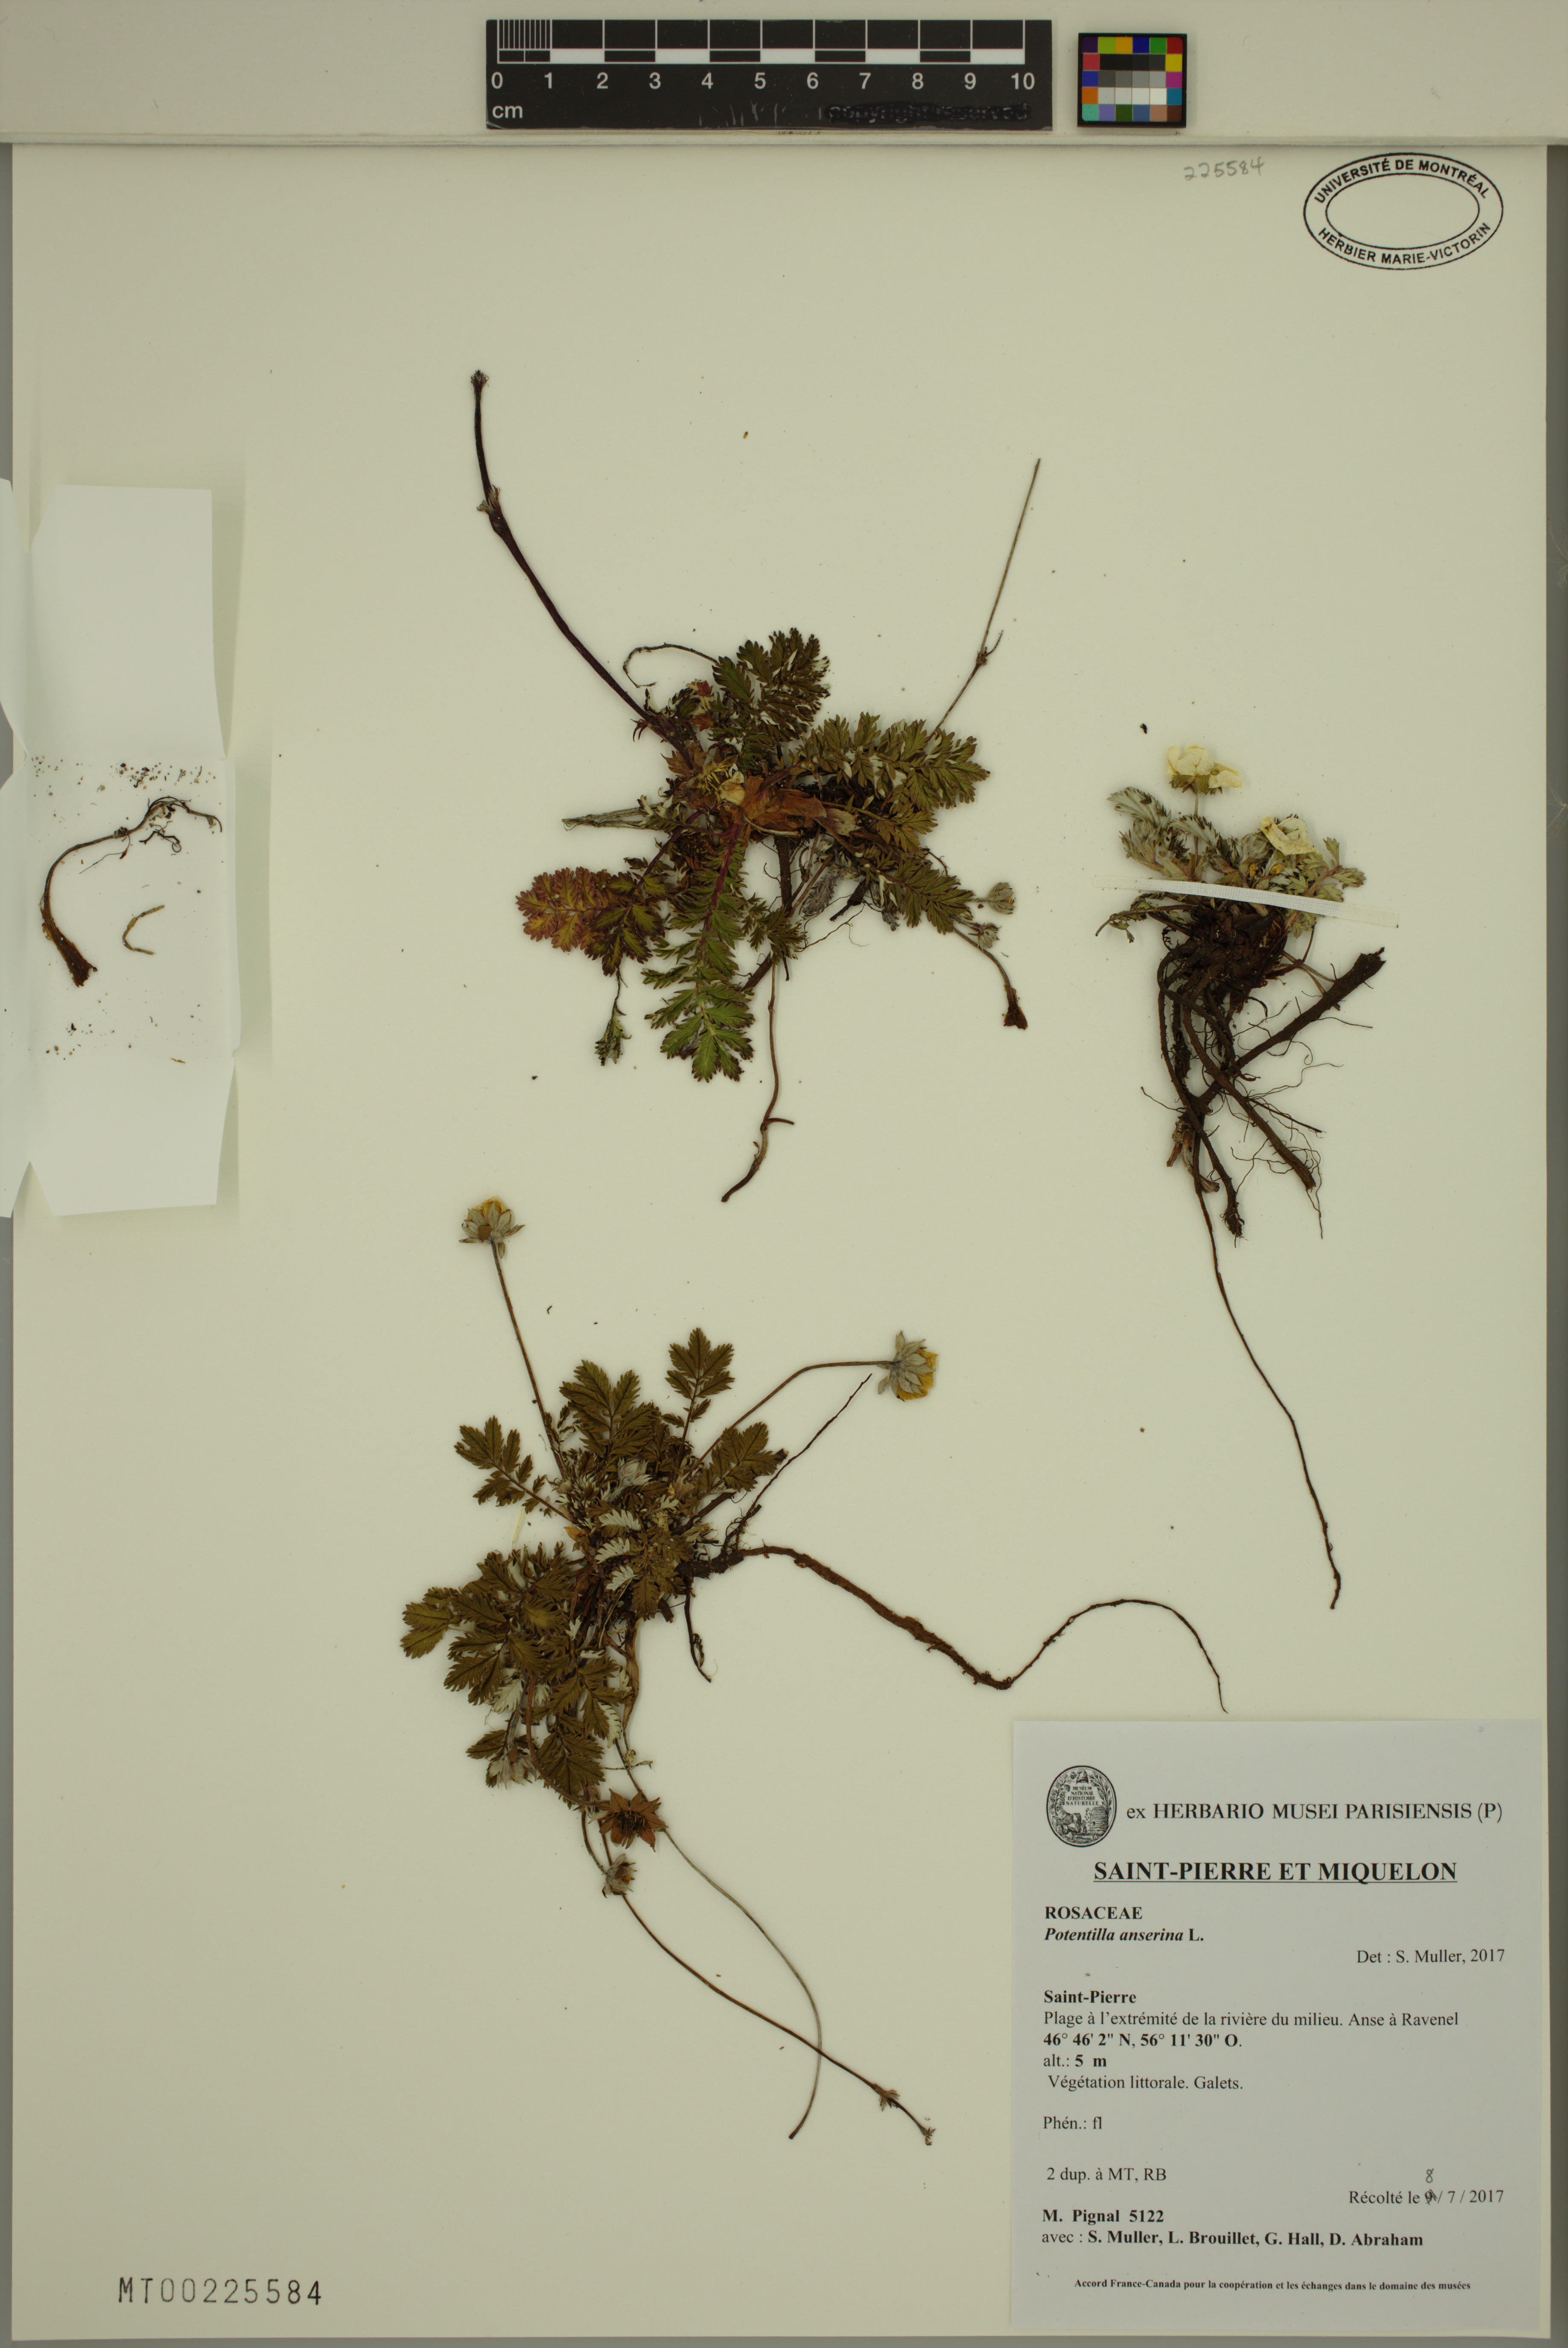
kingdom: Plantae
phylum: Tracheophyta
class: Magnoliopsida
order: Rosales
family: Rosaceae
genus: Argentina
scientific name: Argentina anserina
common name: Common silverweed
